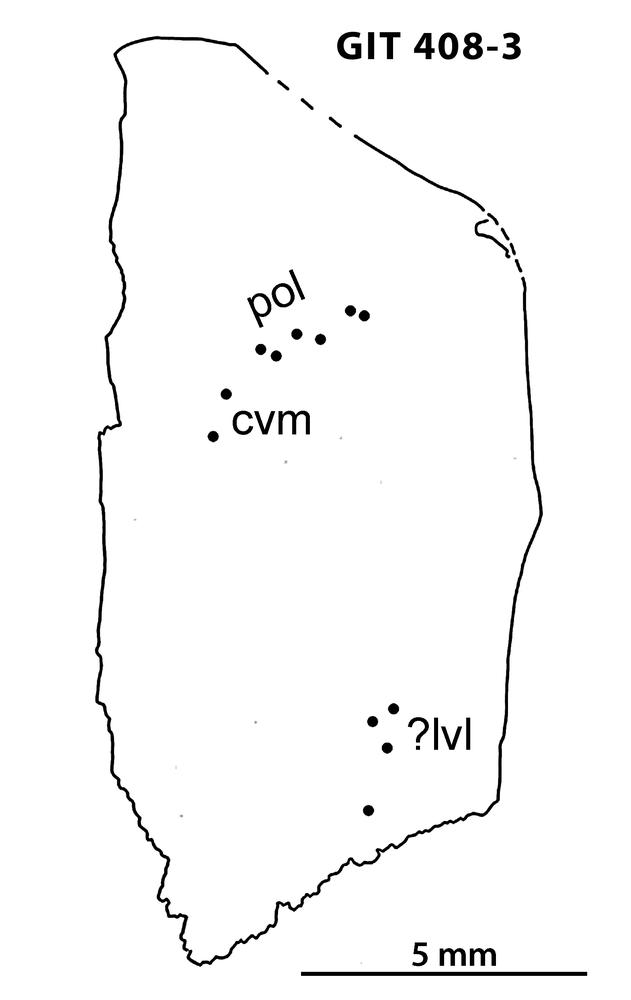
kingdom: Animalia
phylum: Chordata
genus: Archegonaspis
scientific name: Archegonaspis
